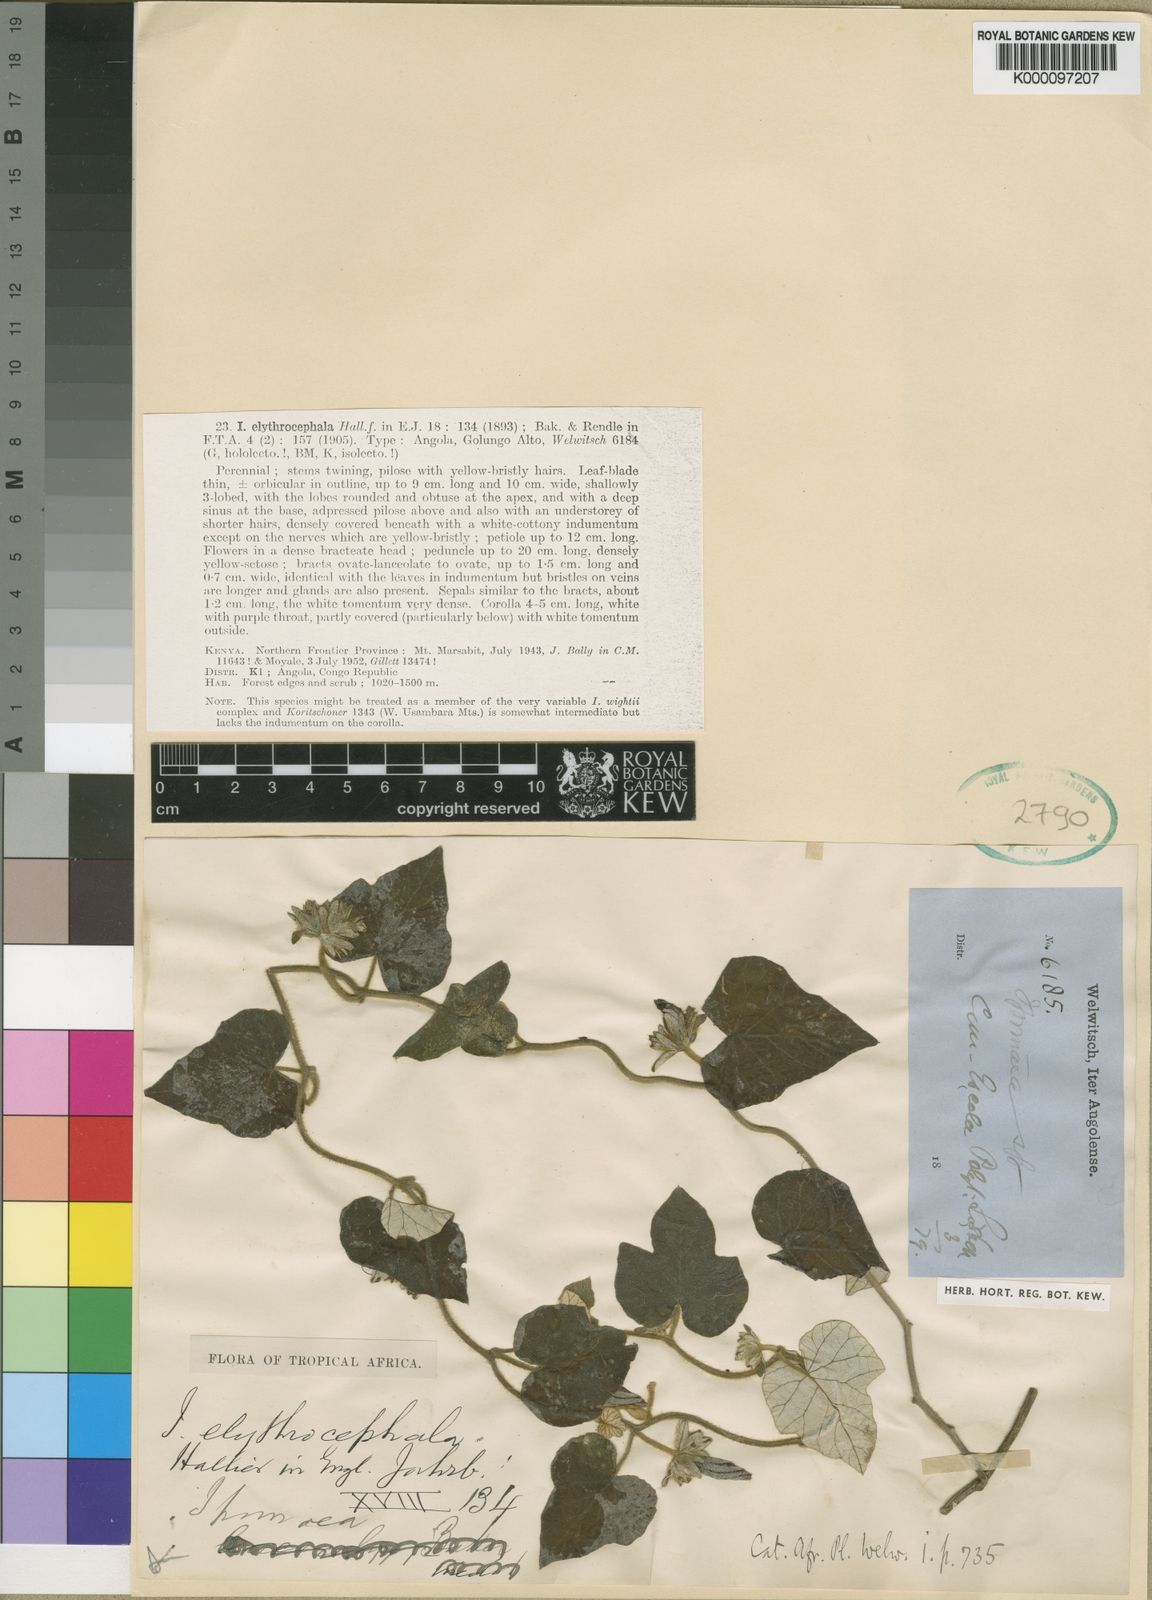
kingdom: Plantae
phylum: Tracheophyta
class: Magnoliopsida
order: Solanales
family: Convolvulaceae
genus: Ipomoea
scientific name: Ipomoea
